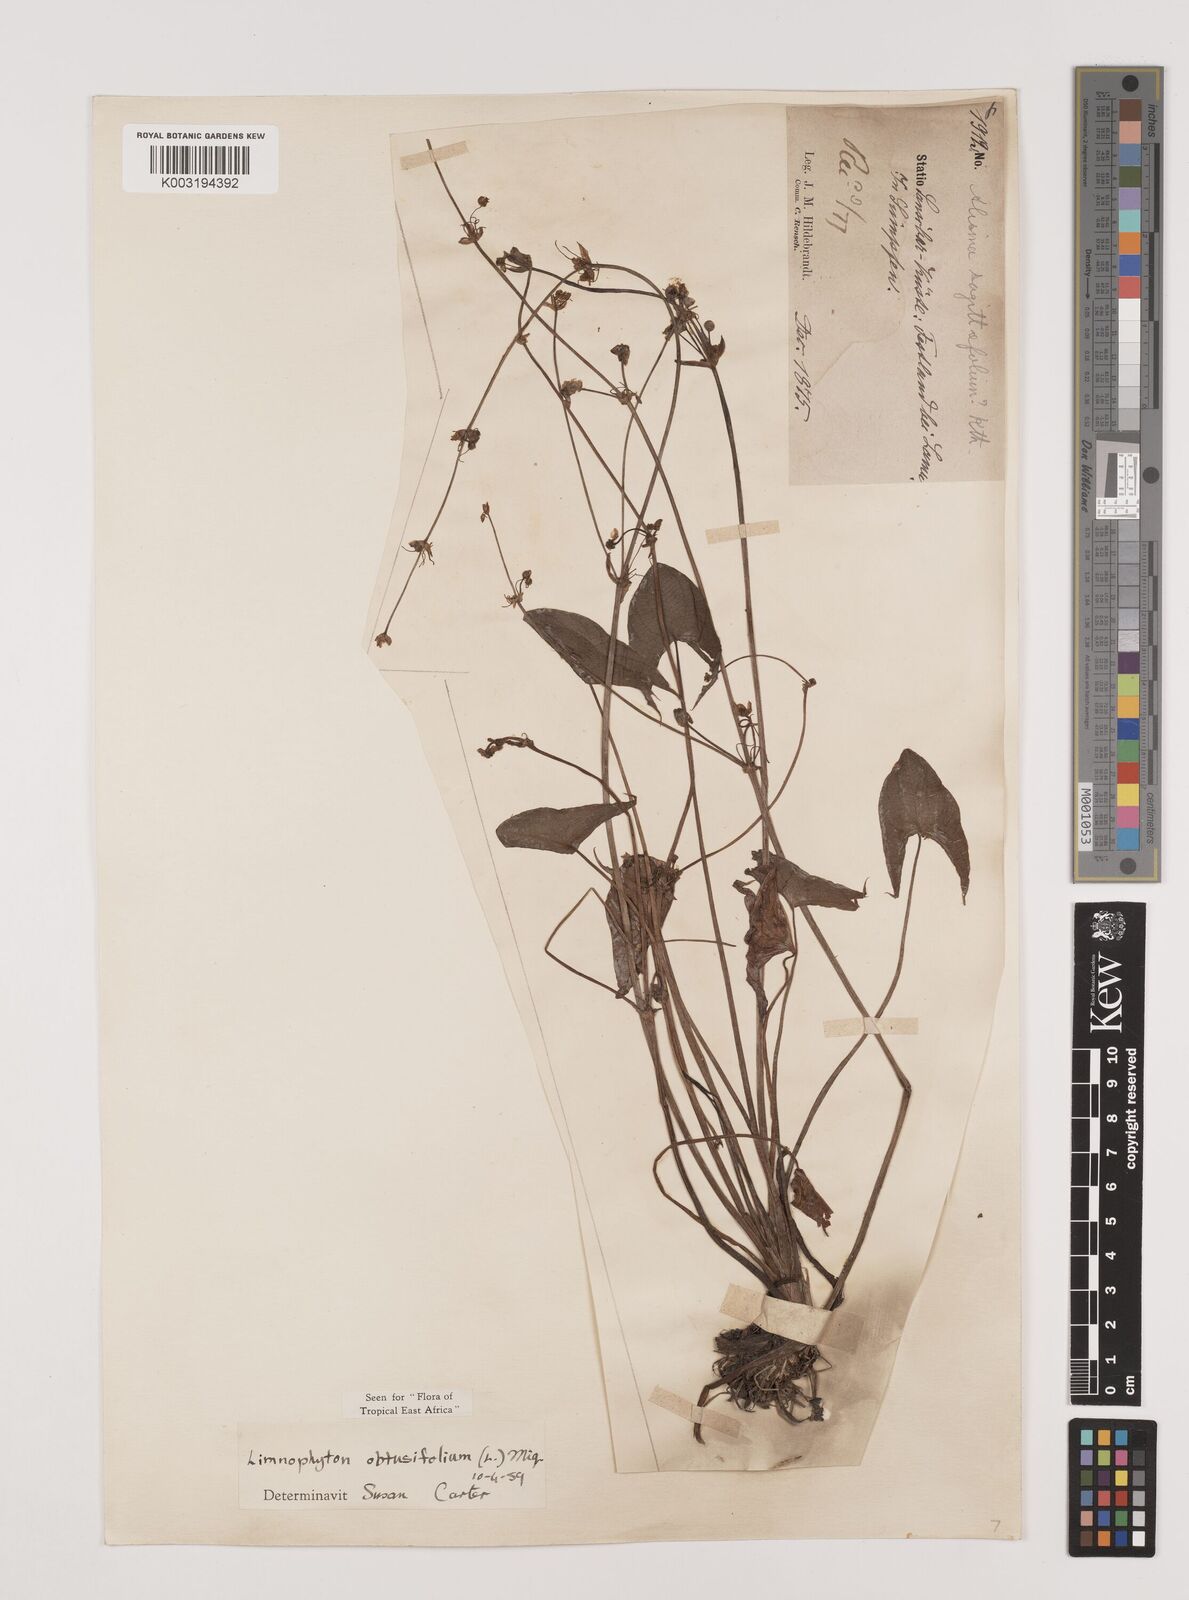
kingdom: Plantae
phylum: Tracheophyta
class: Liliopsida
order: Alismatales
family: Alismataceae
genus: Limnophyton
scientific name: Limnophyton obtusifolium
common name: Arrow head
